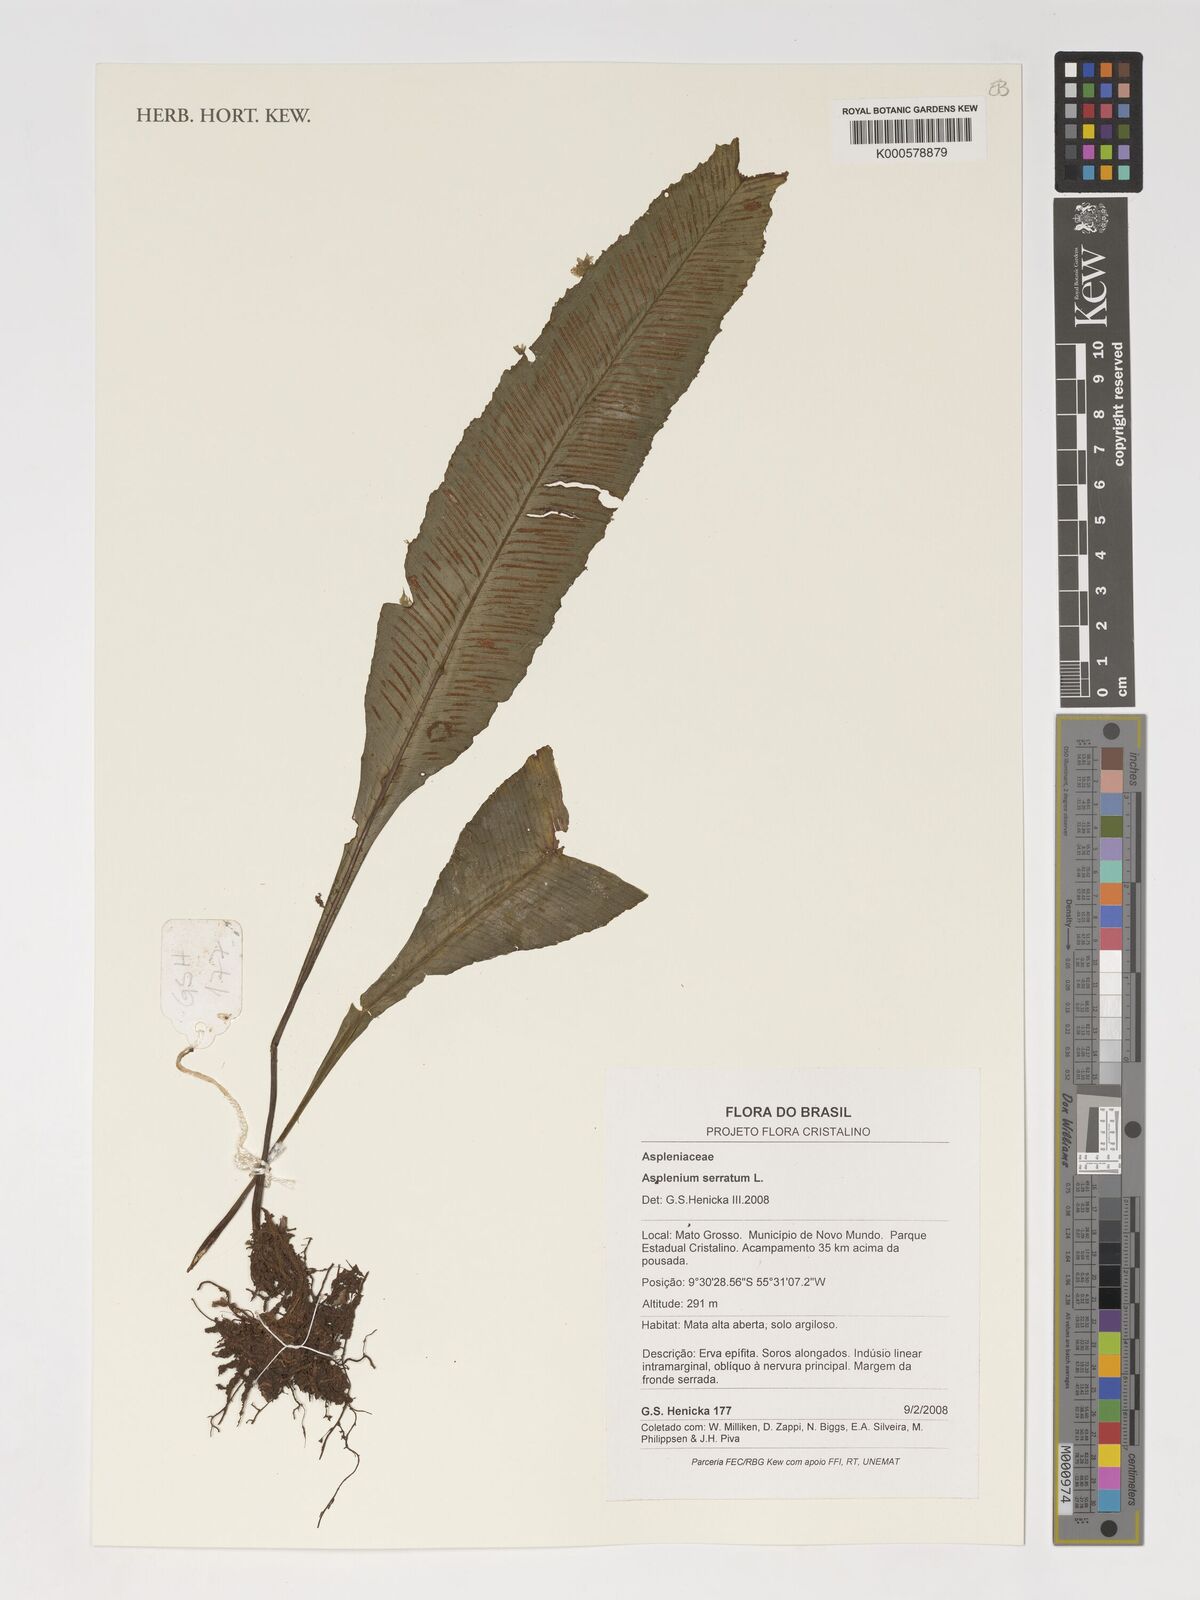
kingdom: Plantae
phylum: Tracheophyta
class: Polypodiopsida
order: Polypodiales
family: Aspleniaceae
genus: Asplenium
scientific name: Asplenium serratum
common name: Wild birdnest fern
